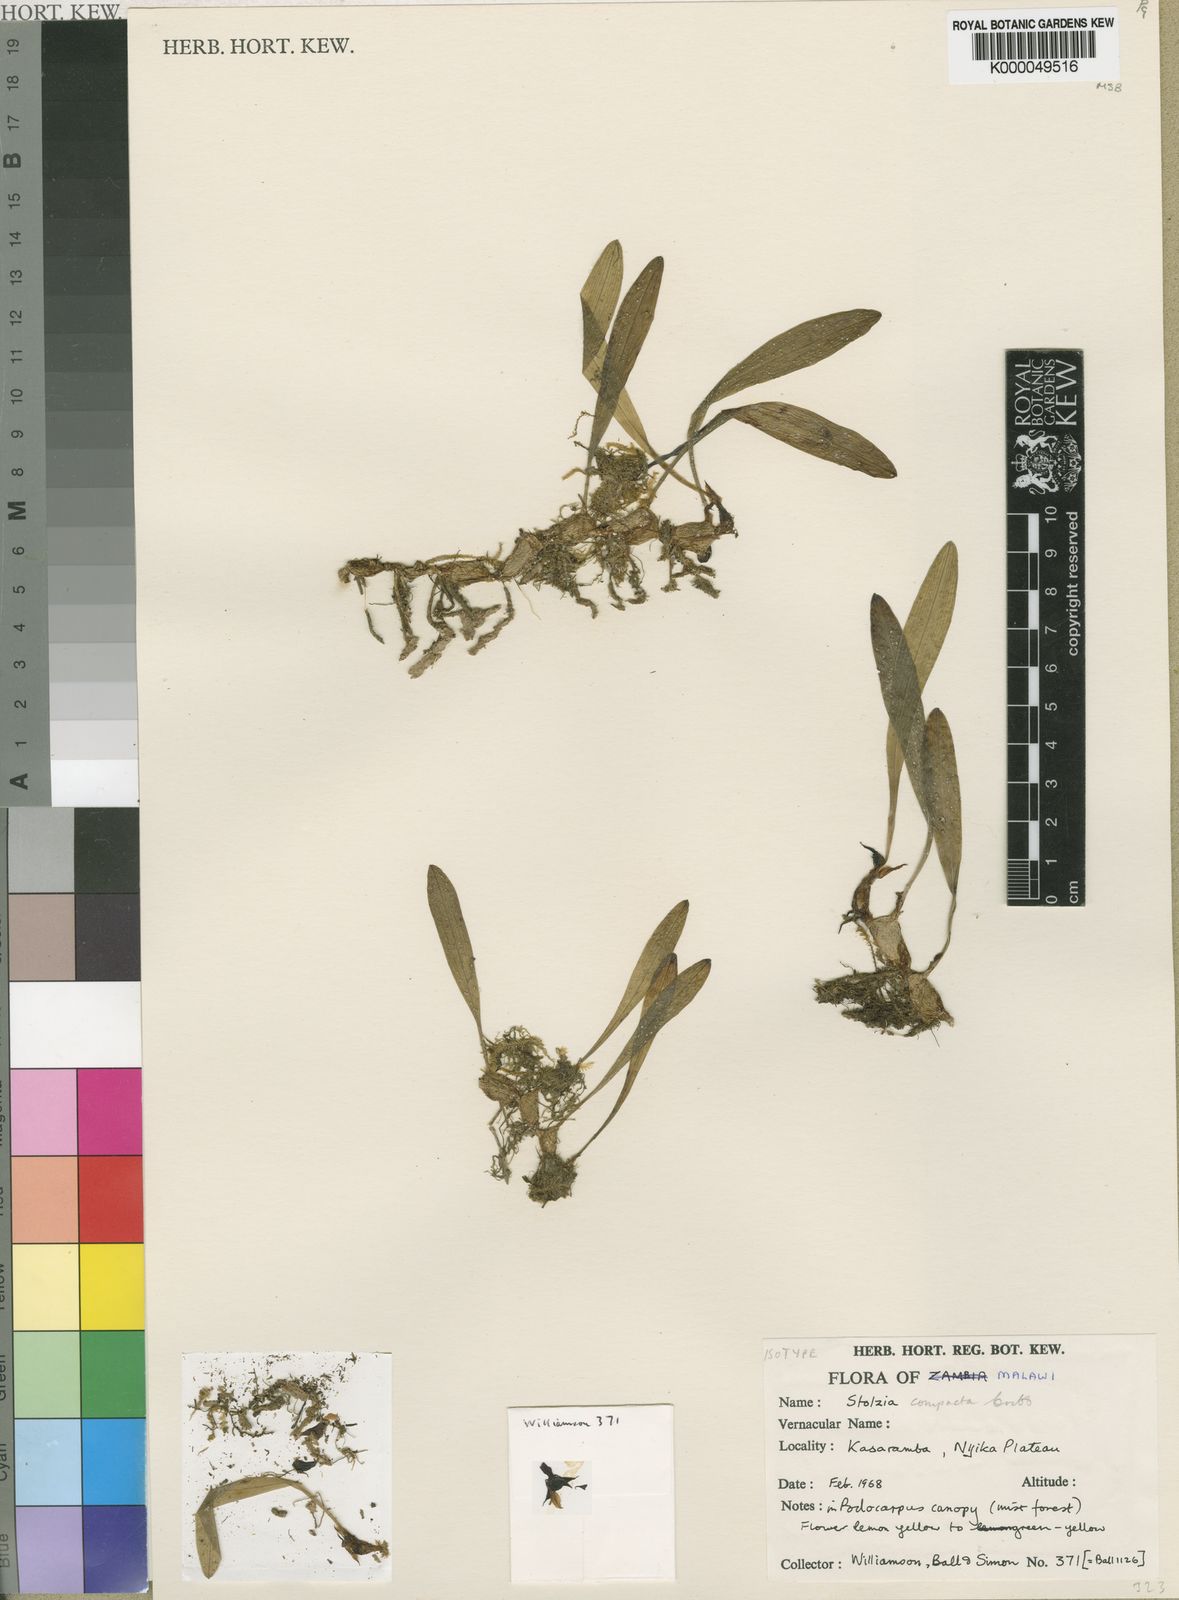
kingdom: Plantae
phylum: Tracheophyta
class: Liliopsida
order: Asparagales
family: Orchidaceae
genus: Porpax
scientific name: Porpax compacta
